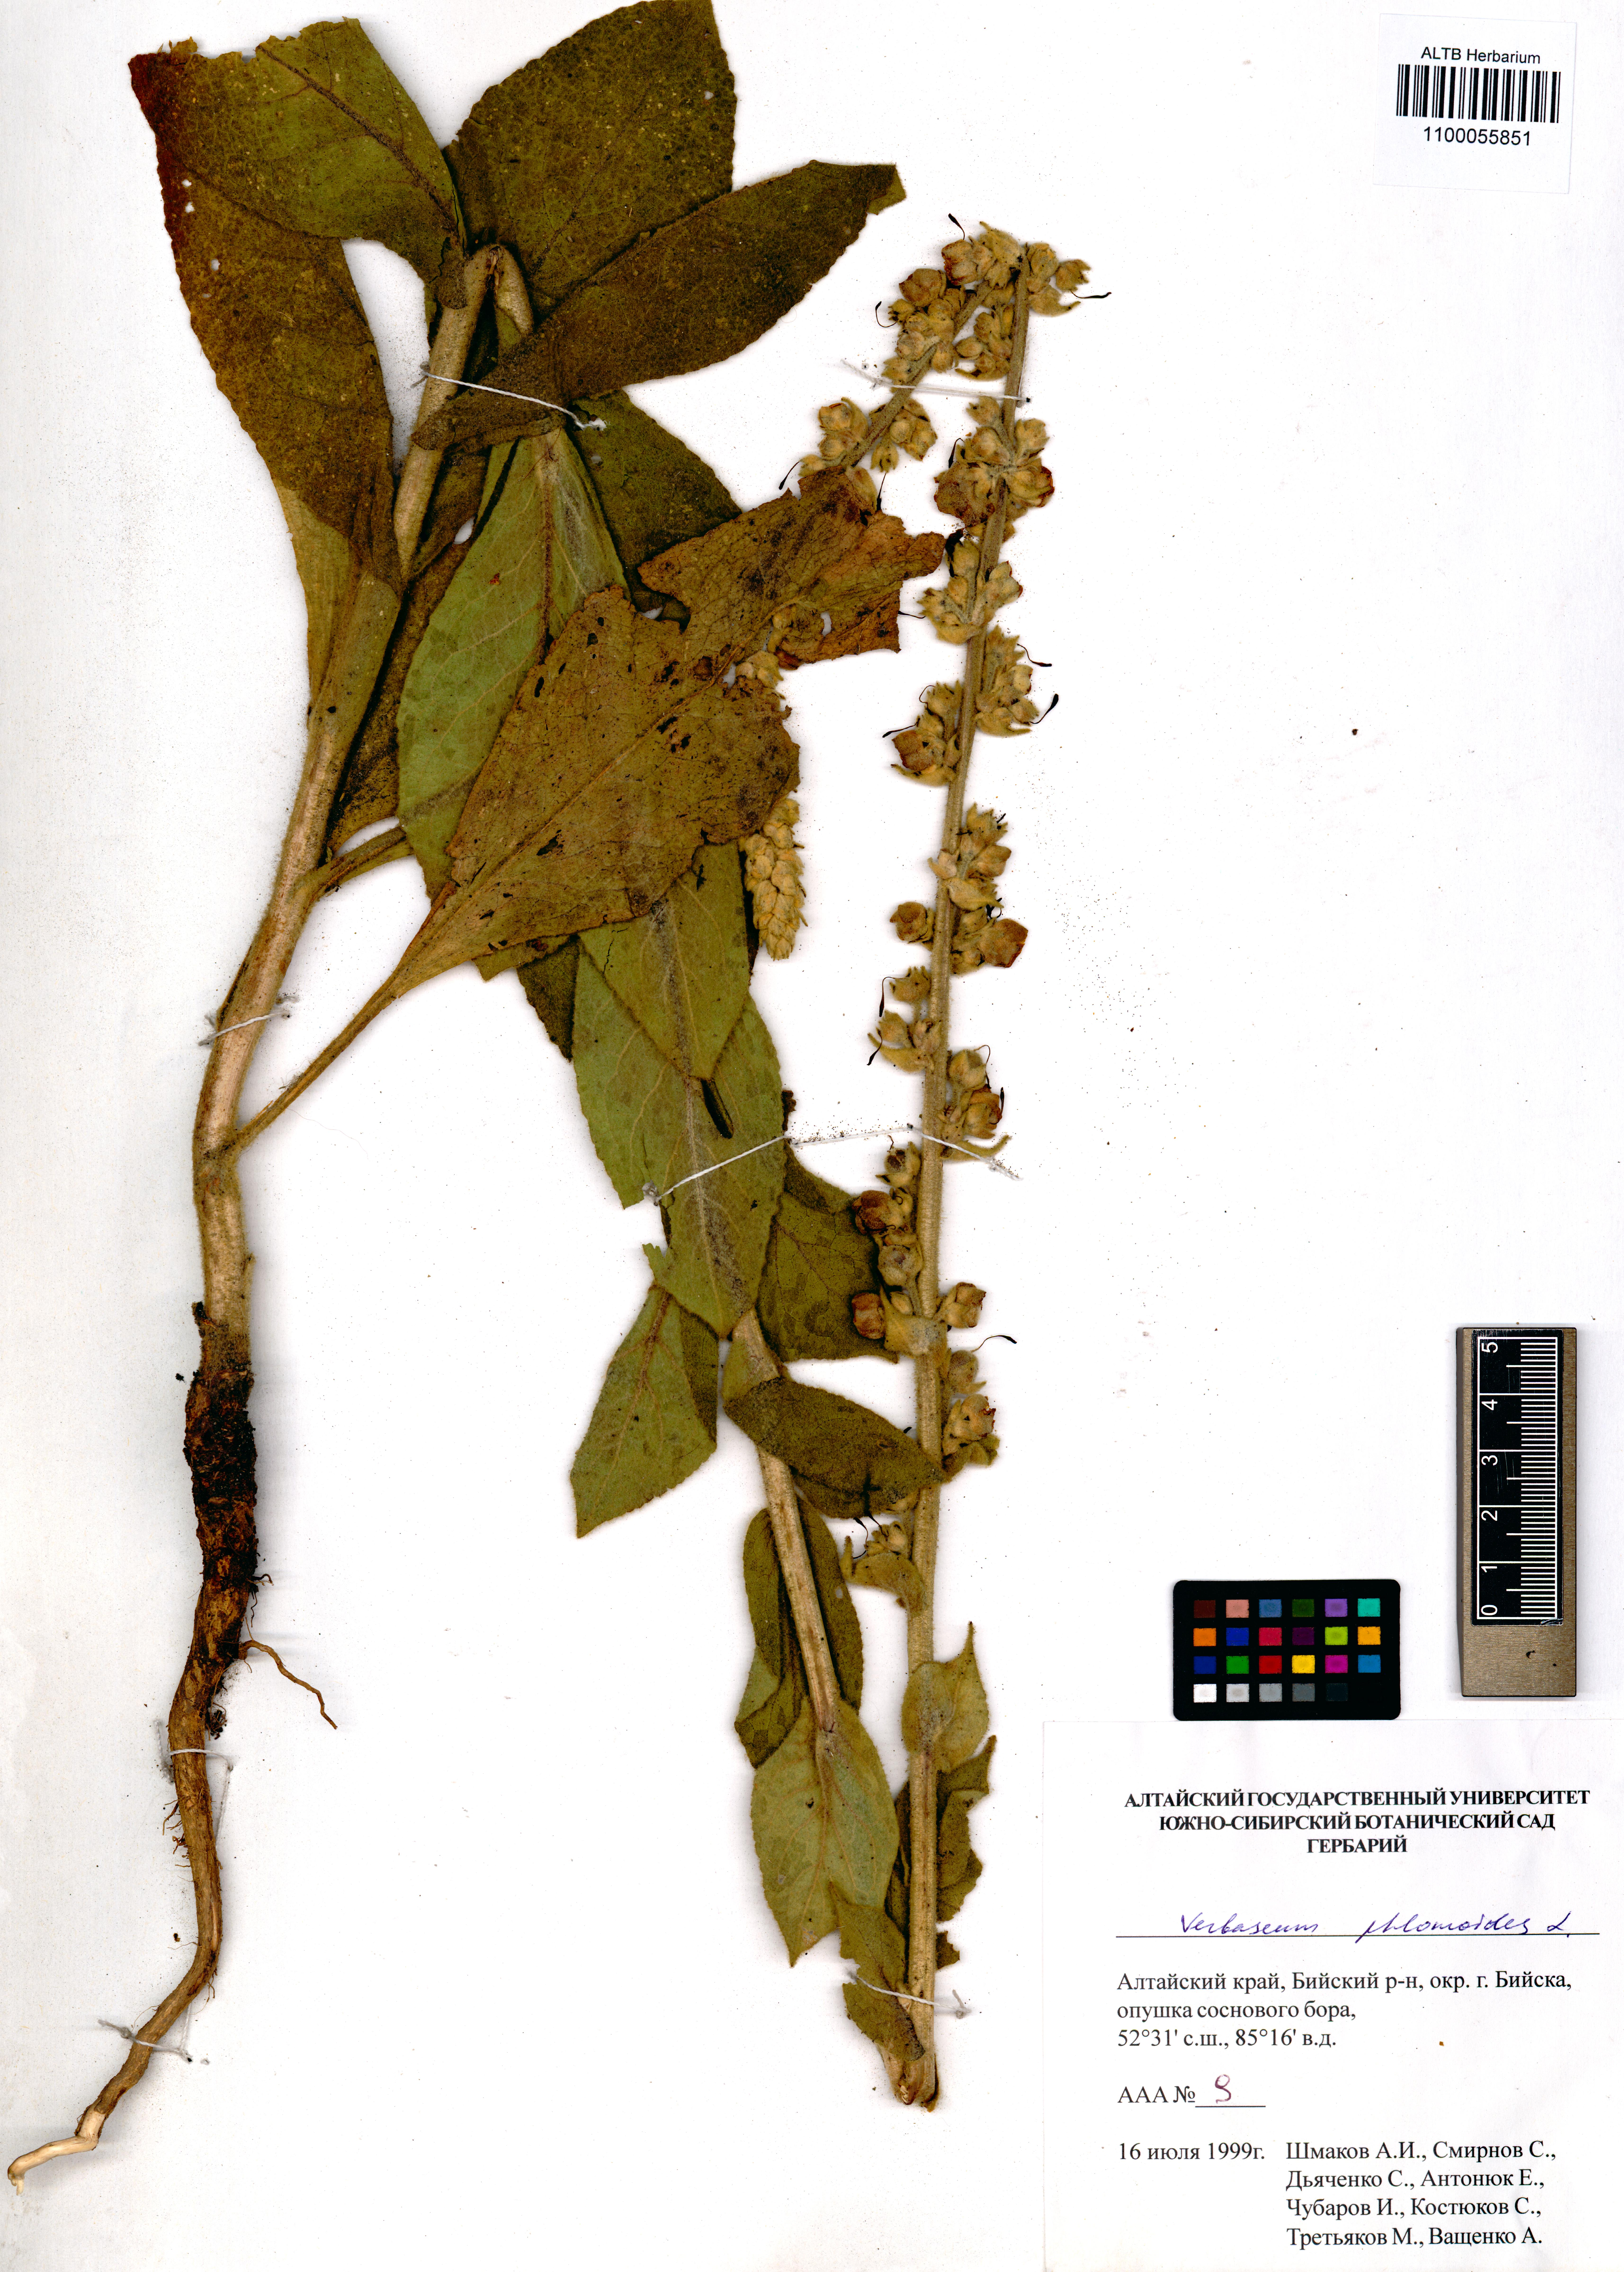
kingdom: Plantae
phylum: Tracheophyta
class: Magnoliopsida
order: Lamiales
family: Scrophulariaceae
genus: Verbascum
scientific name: Verbascum phlomoides
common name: Orange mullein
